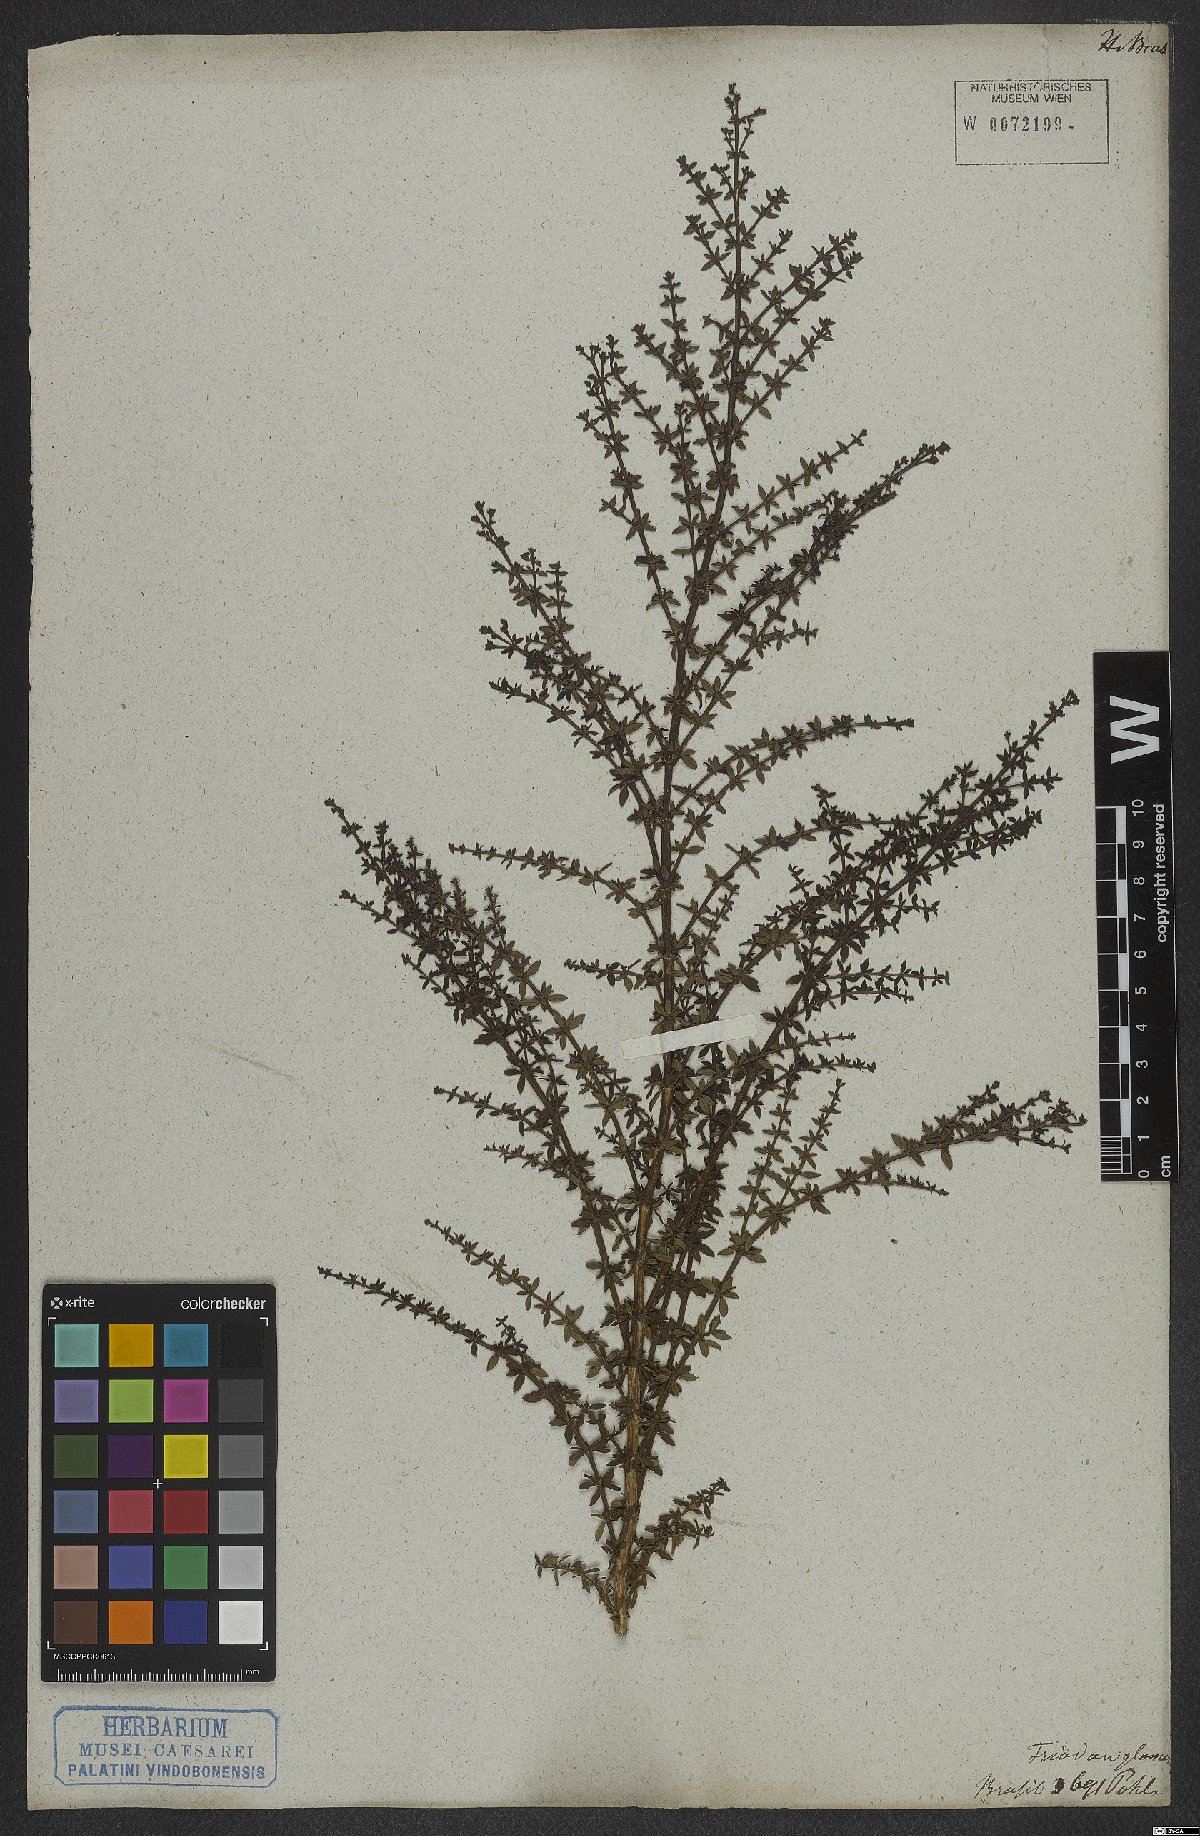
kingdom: Plantae
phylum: Tracheophyta
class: Magnoliopsida
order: Gentianales
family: Rubiaceae
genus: Galianthe
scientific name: Galianthe brasiliensis
